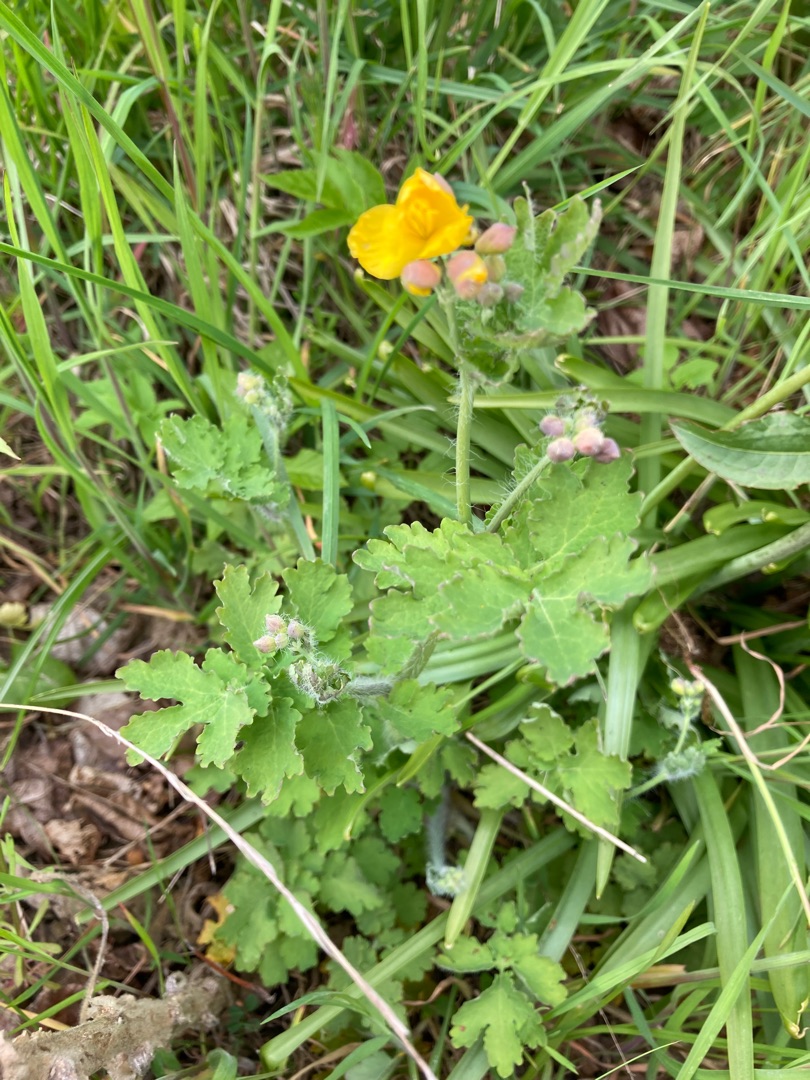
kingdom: Plantae
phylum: Tracheophyta
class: Magnoliopsida
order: Ranunculales
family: Papaveraceae
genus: Chelidonium
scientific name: Chelidonium majus
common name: Svaleurt
